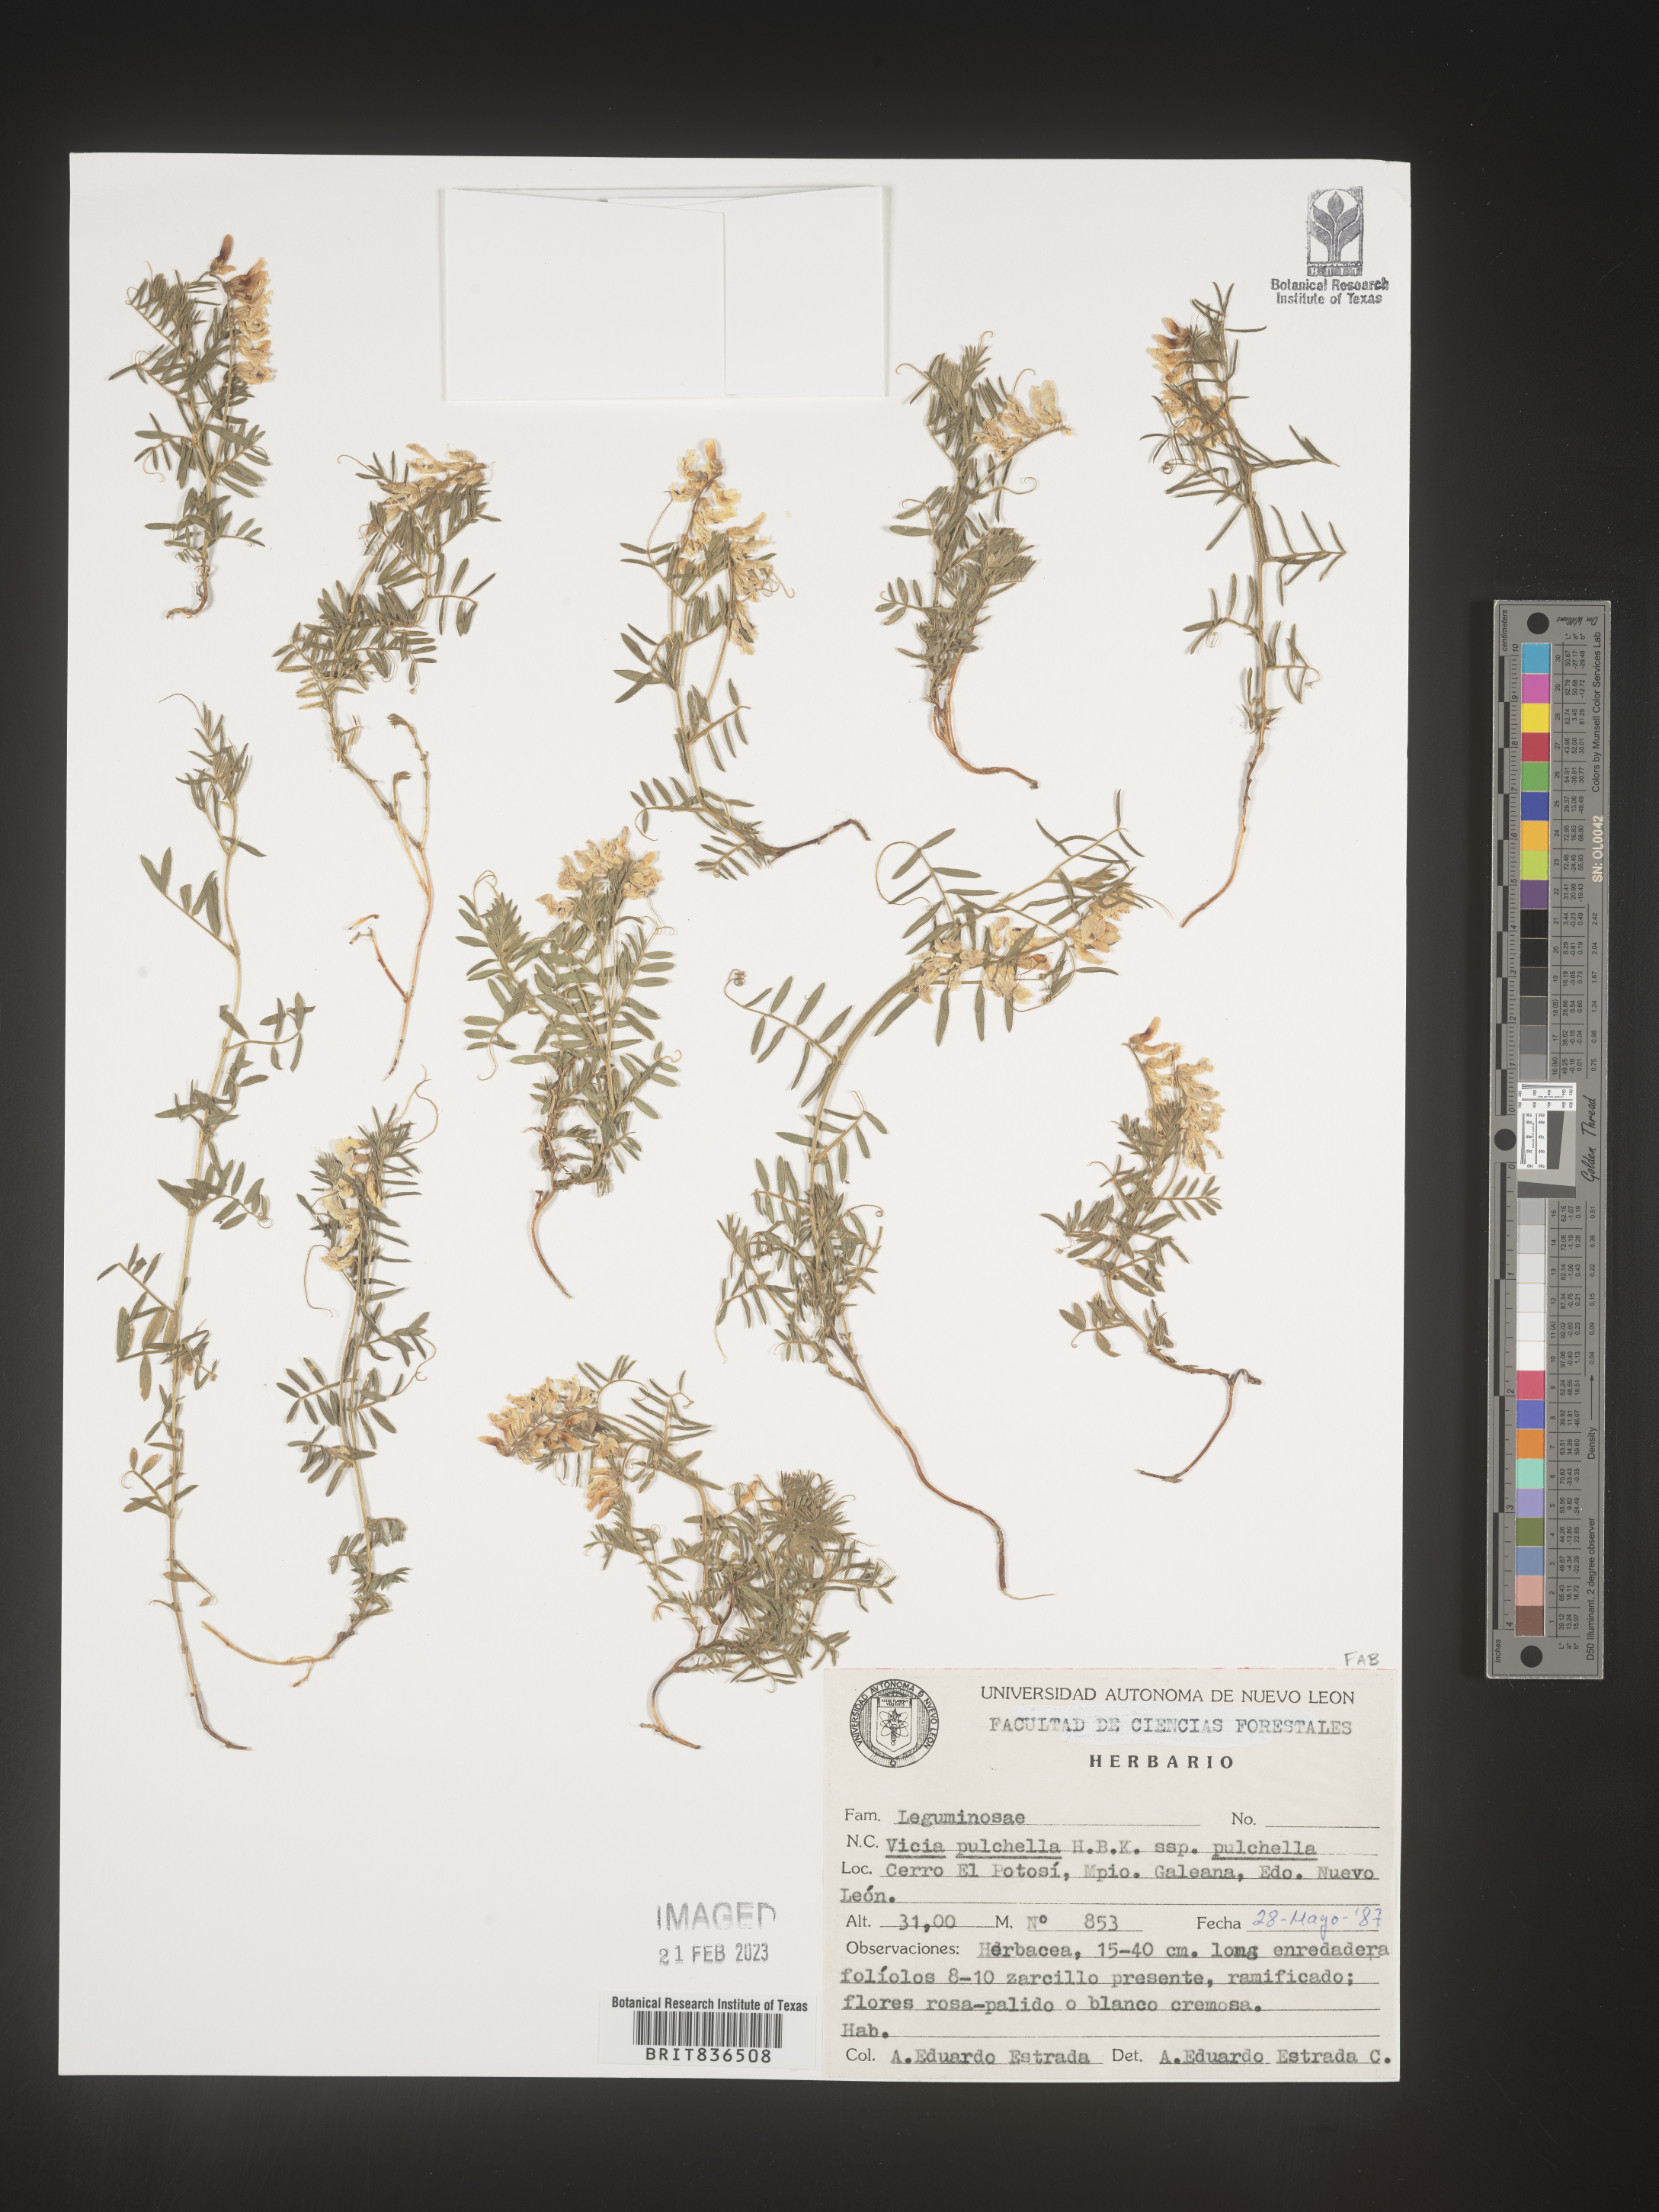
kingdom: Plantae
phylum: Tracheophyta
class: Magnoliopsida
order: Fabales
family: Fabaceae
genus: Vicia
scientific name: Vicia
